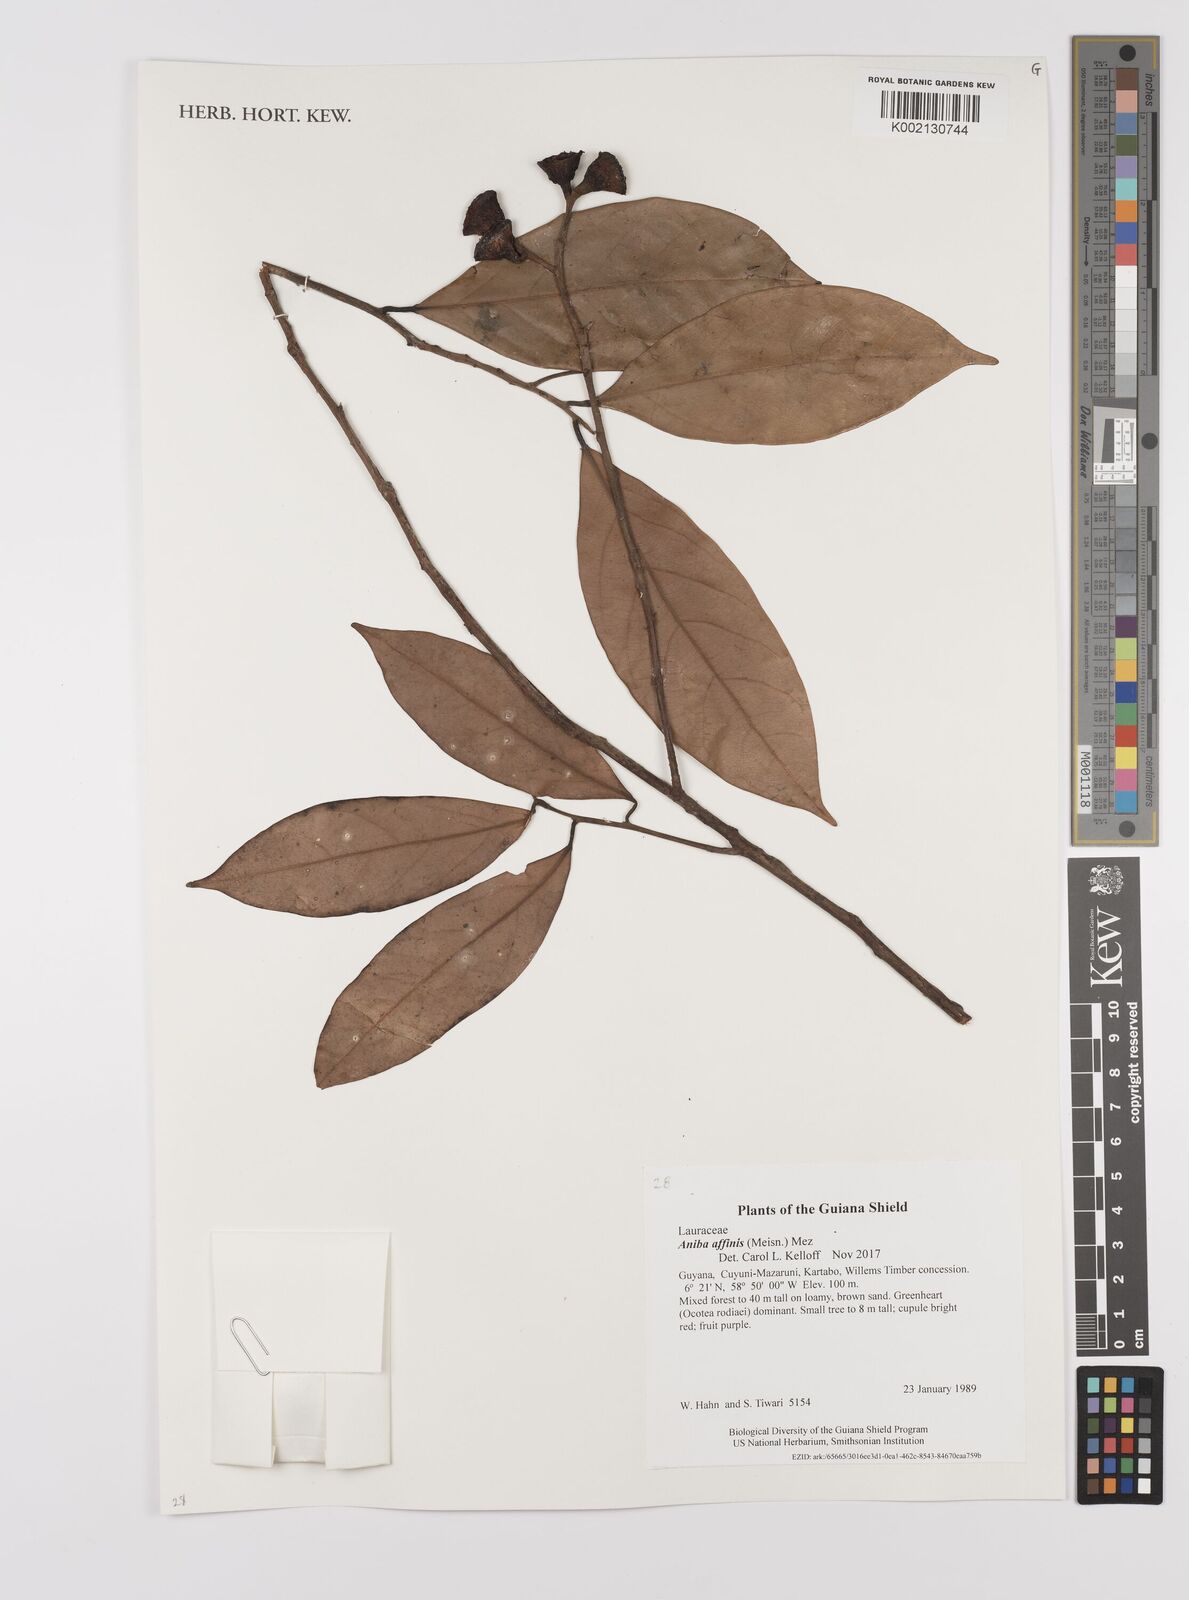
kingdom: Plantae
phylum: Tracheophyta
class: Magnoliopsida
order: Laurales
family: Lauraceae
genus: Aniba
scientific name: Aniba affinis
